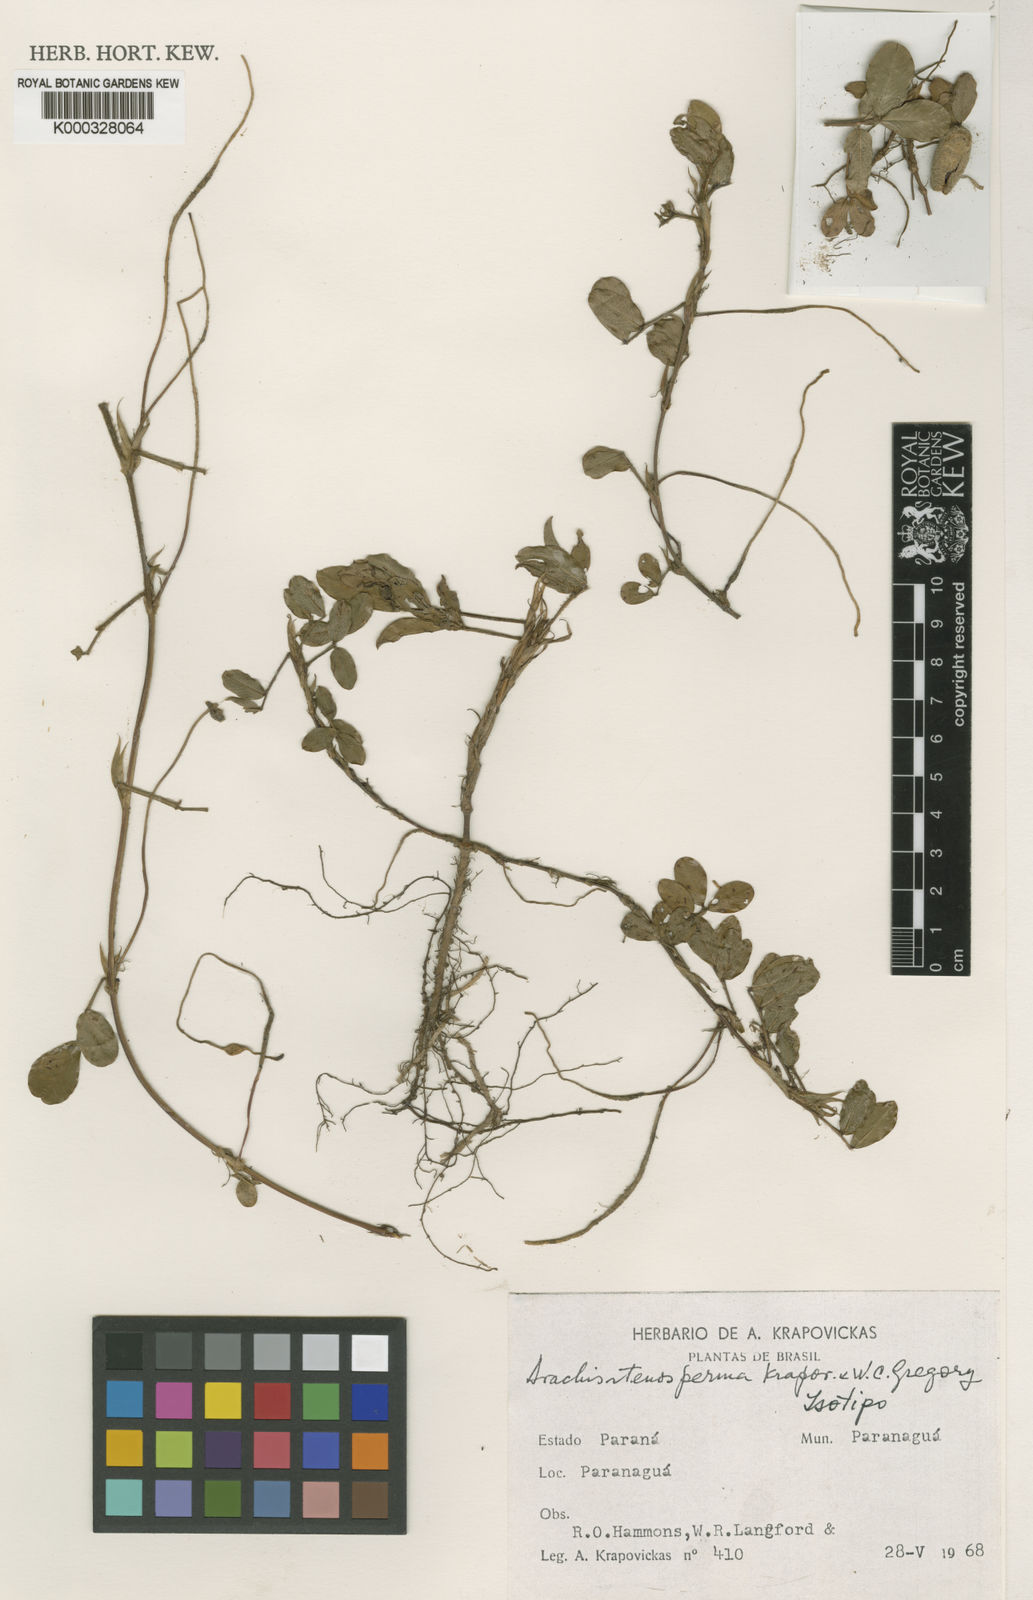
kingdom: Plantae
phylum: Tracheophyta
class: Magnoliopsida
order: Fabales
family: Fabaceae
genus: Arachis
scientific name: Arachis stenosperma
